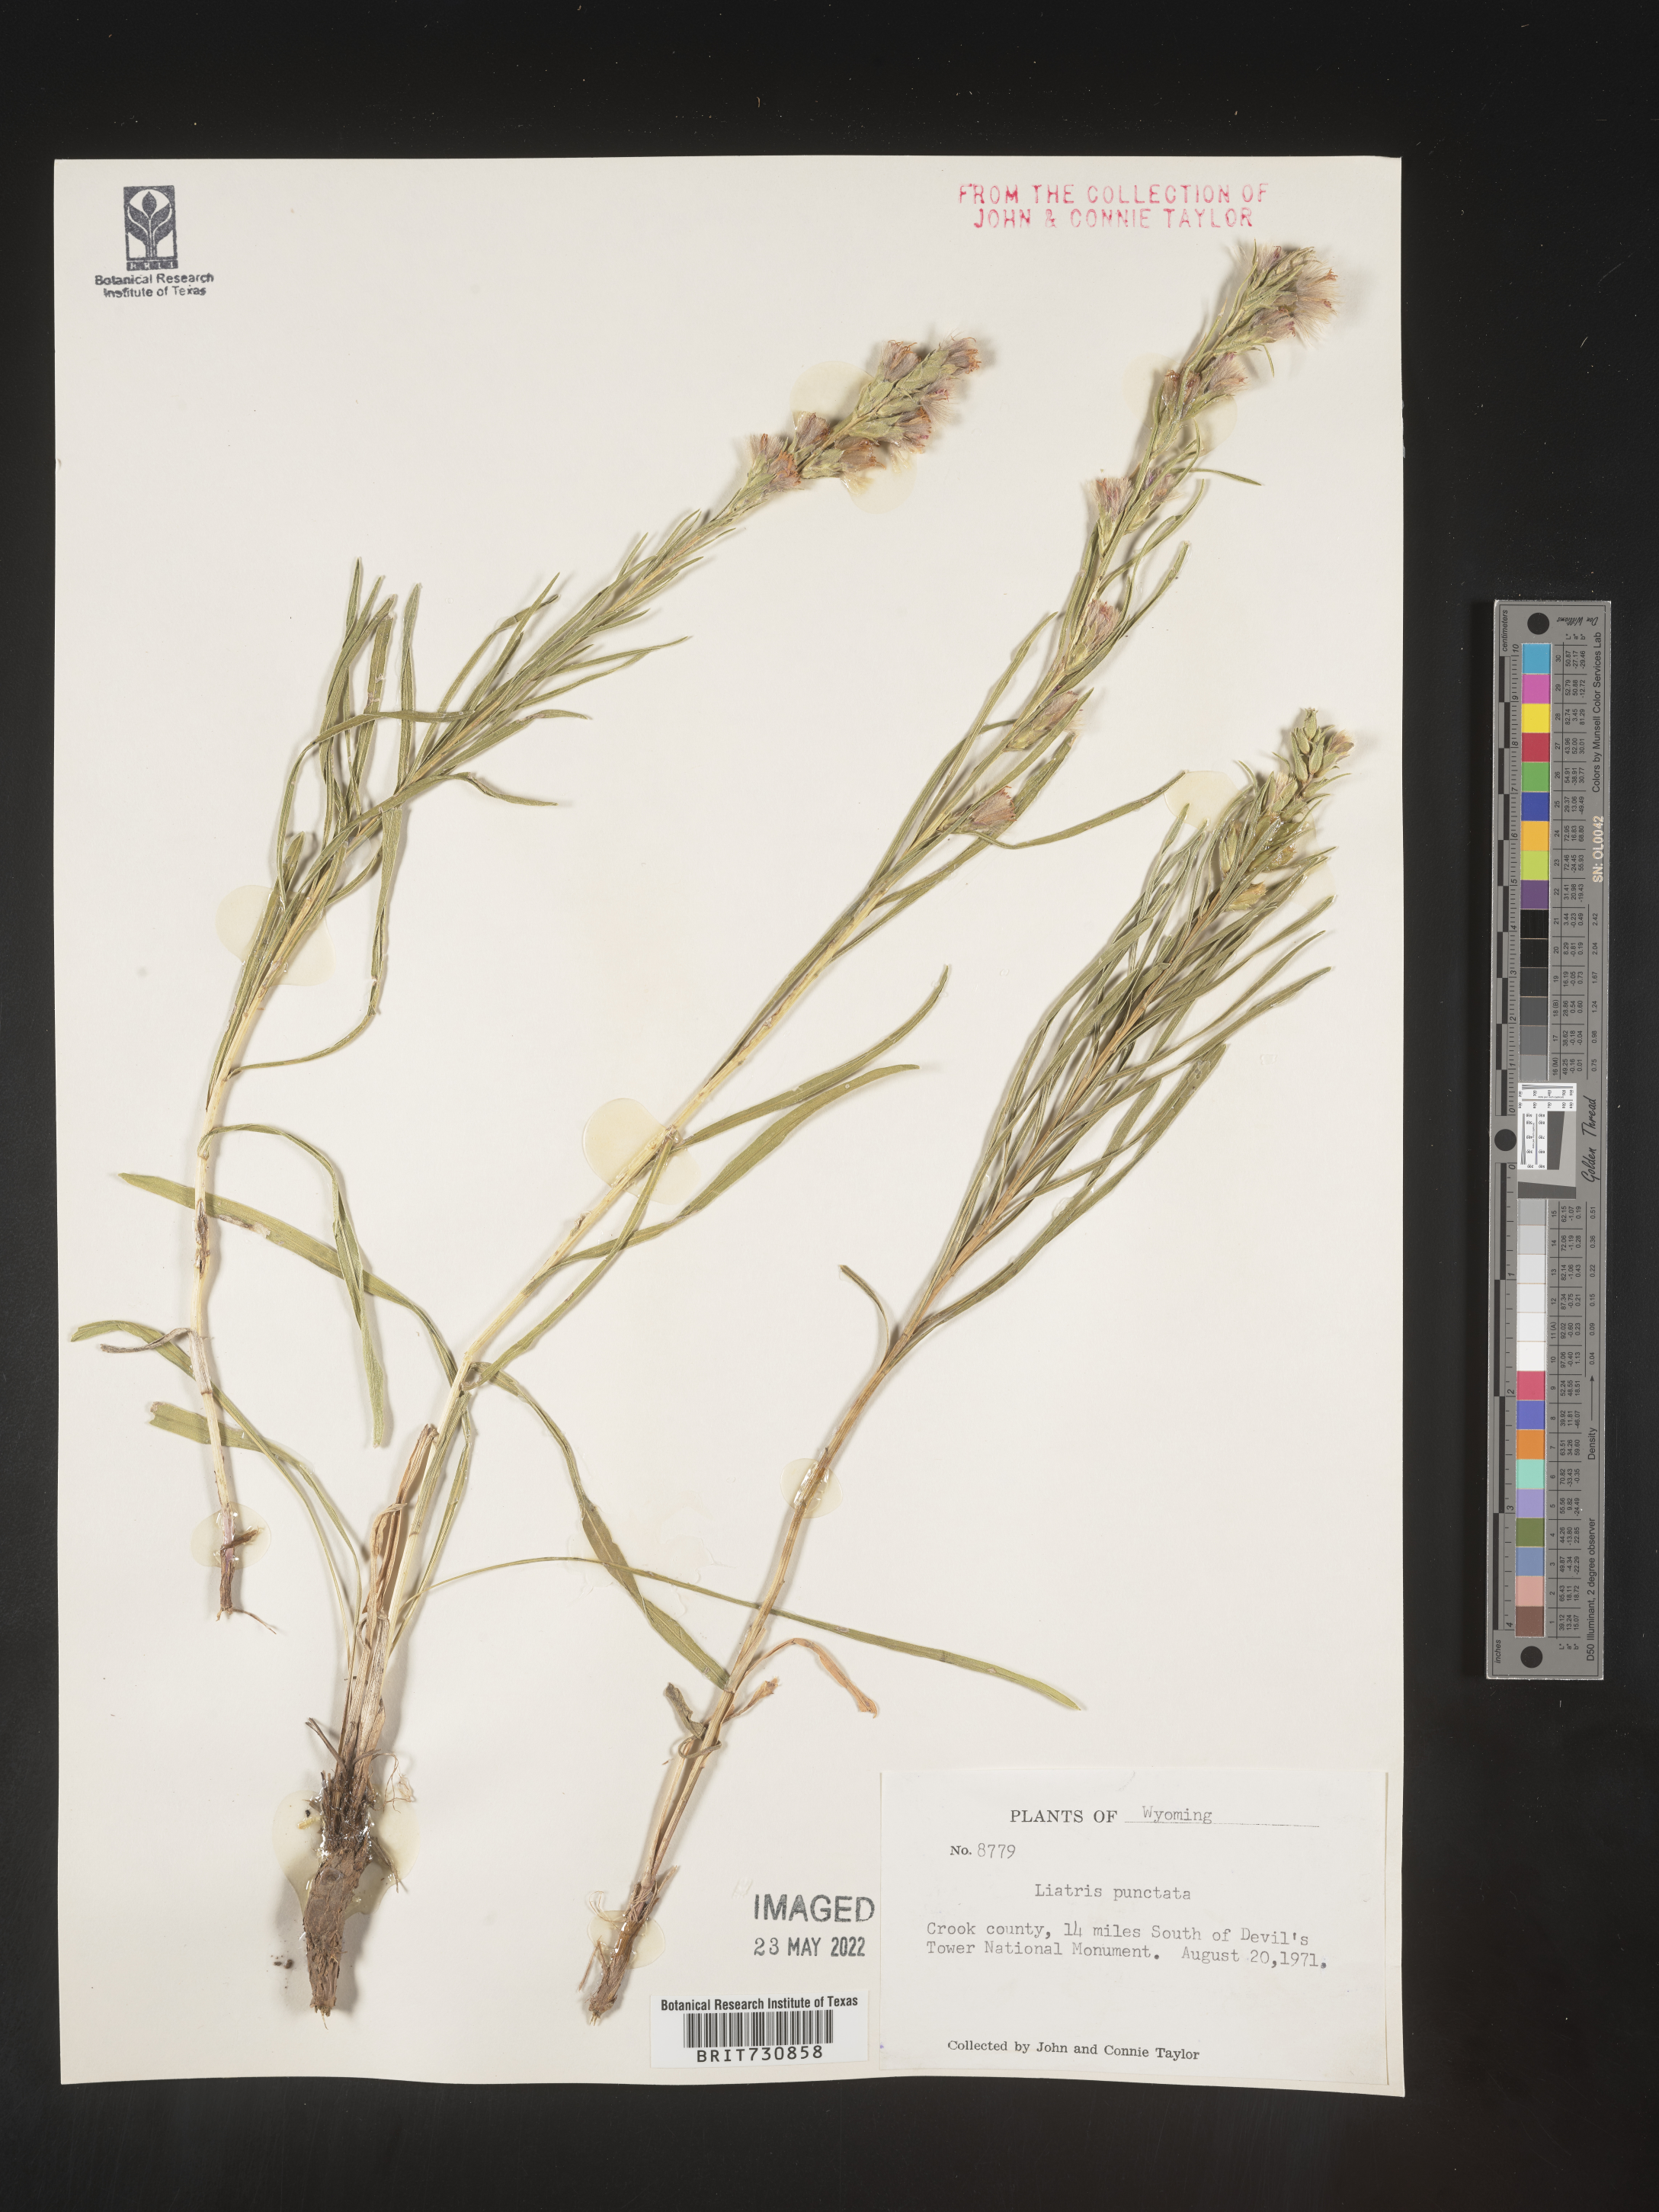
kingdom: Plantae
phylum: Tracheophyta
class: Magnoliopsida
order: Asterales
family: Asteraceae
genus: Liatris
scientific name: Liatris punctata
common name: Dotted gayfeather
